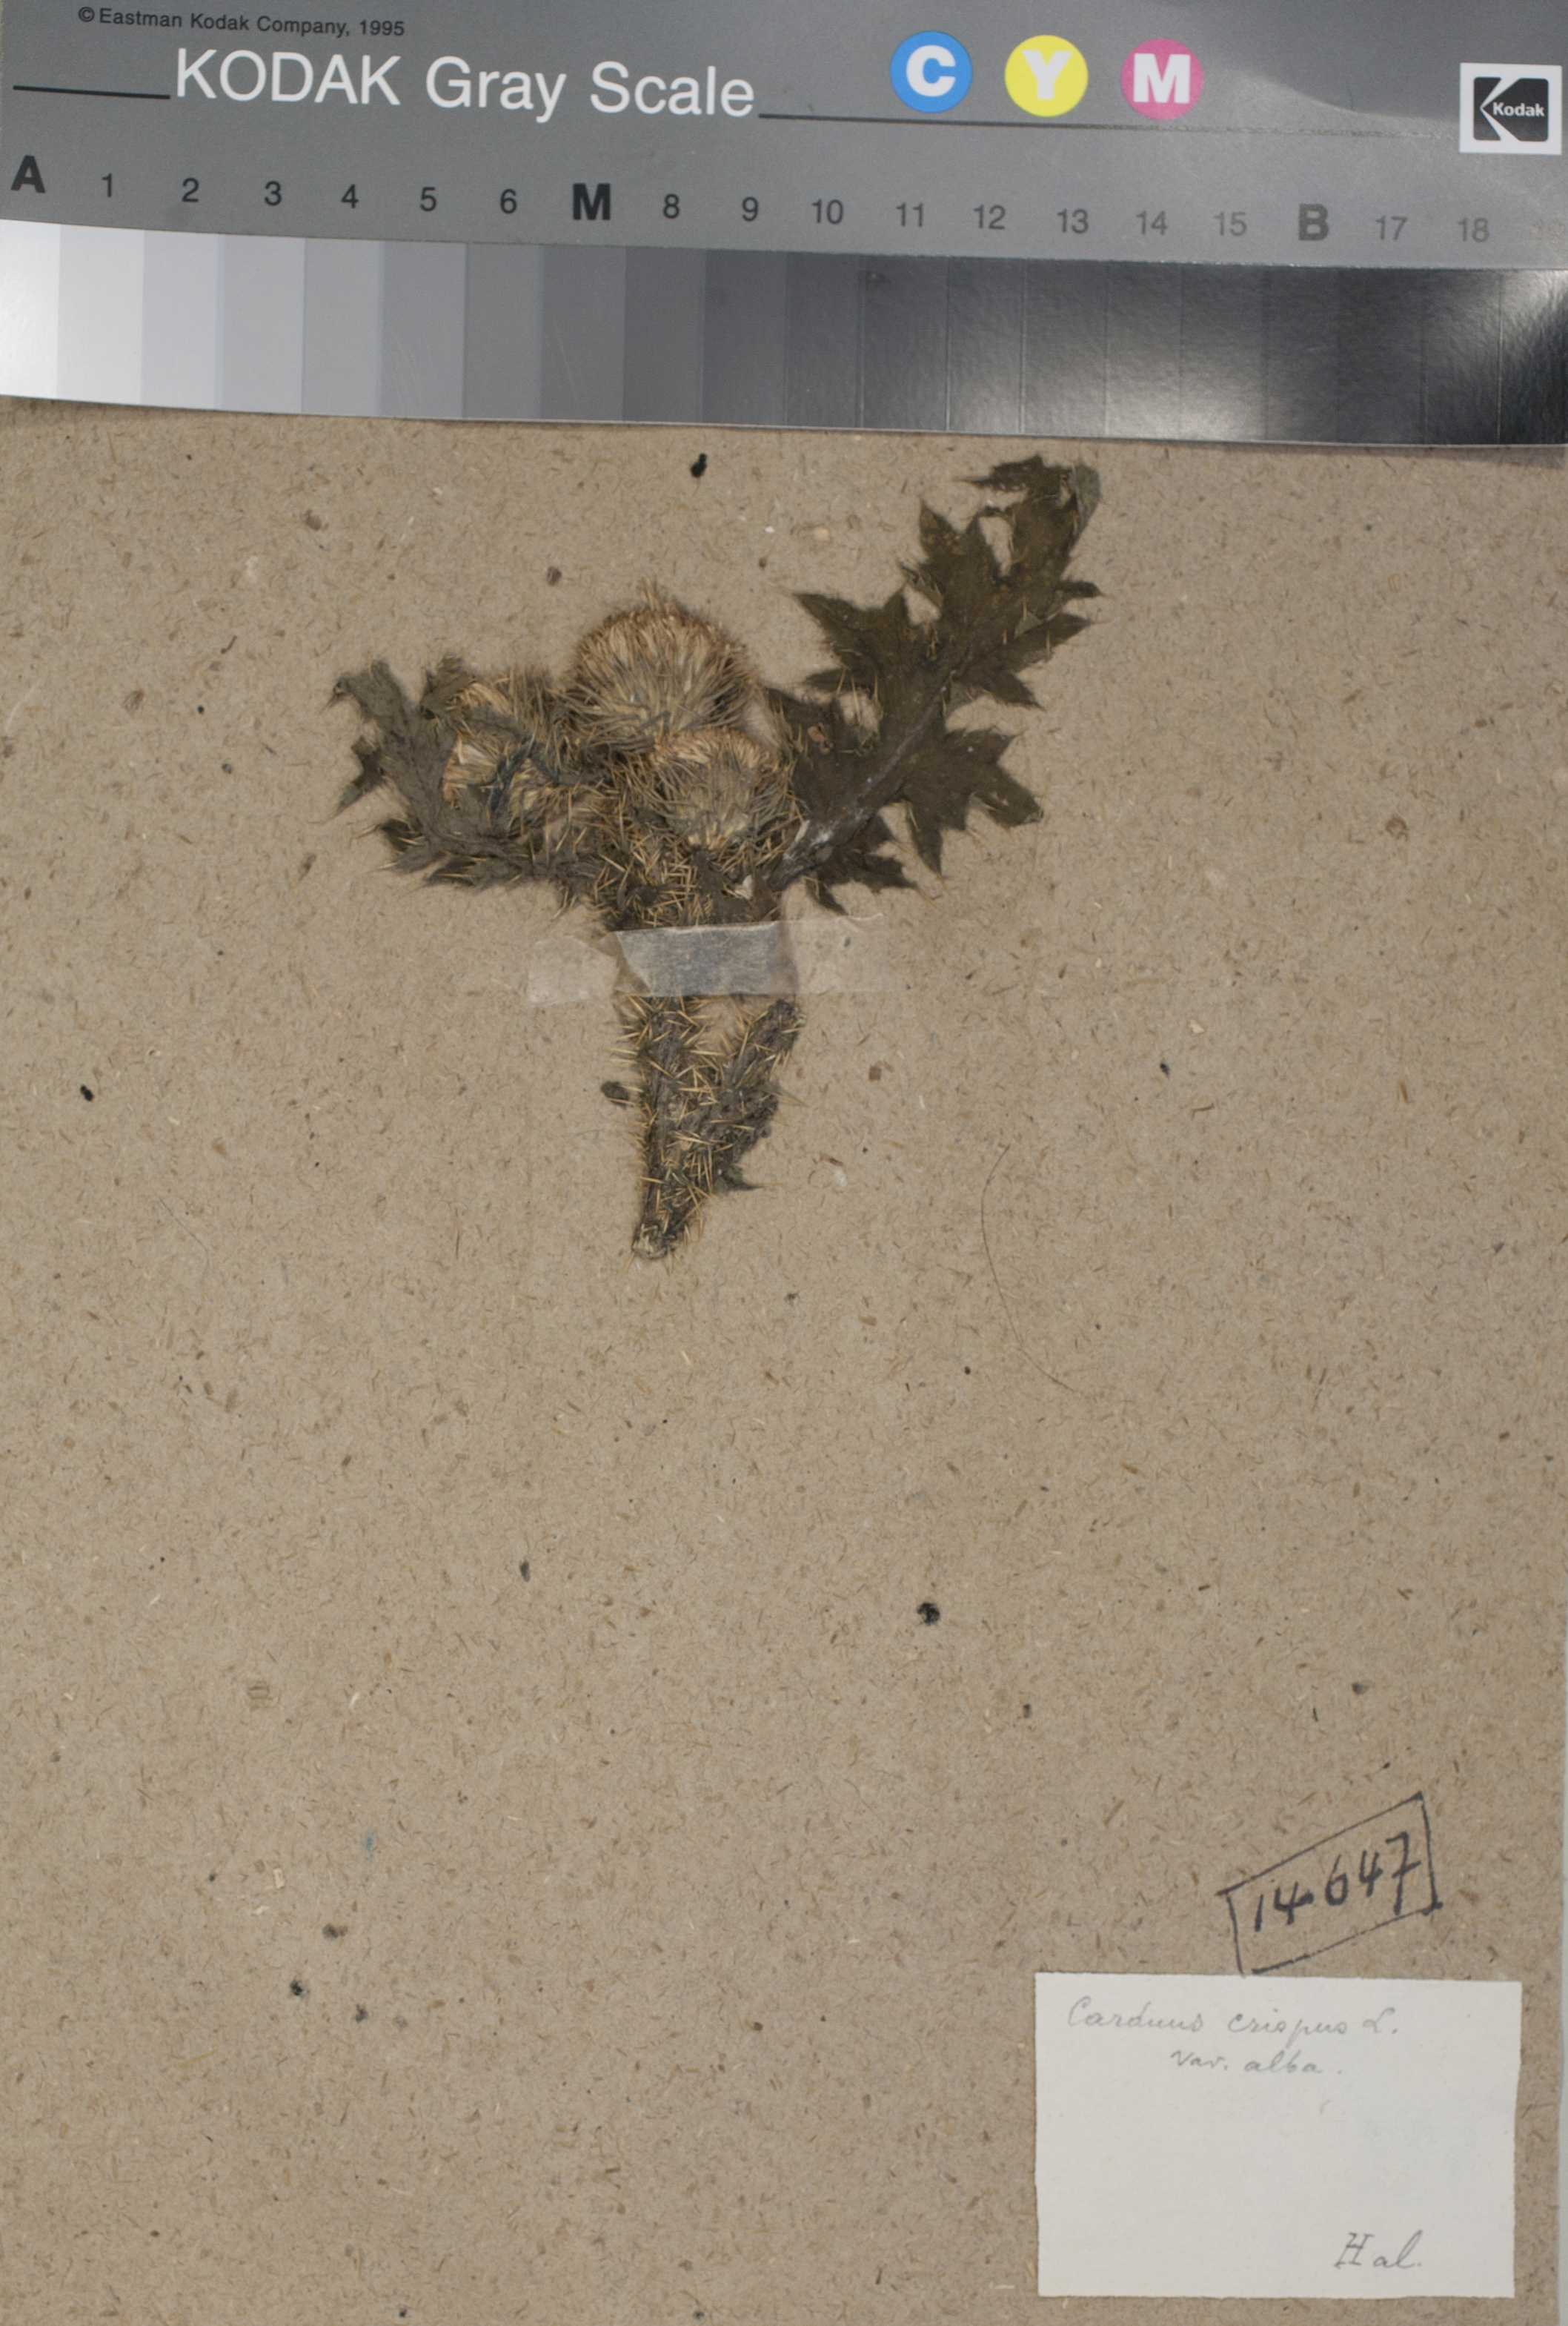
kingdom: Plantae
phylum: Tracheophyta
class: Magnoliopsida
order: Asterales
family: Asteraceae
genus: Carduus
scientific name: Carduus crispus
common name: Welted thistle
